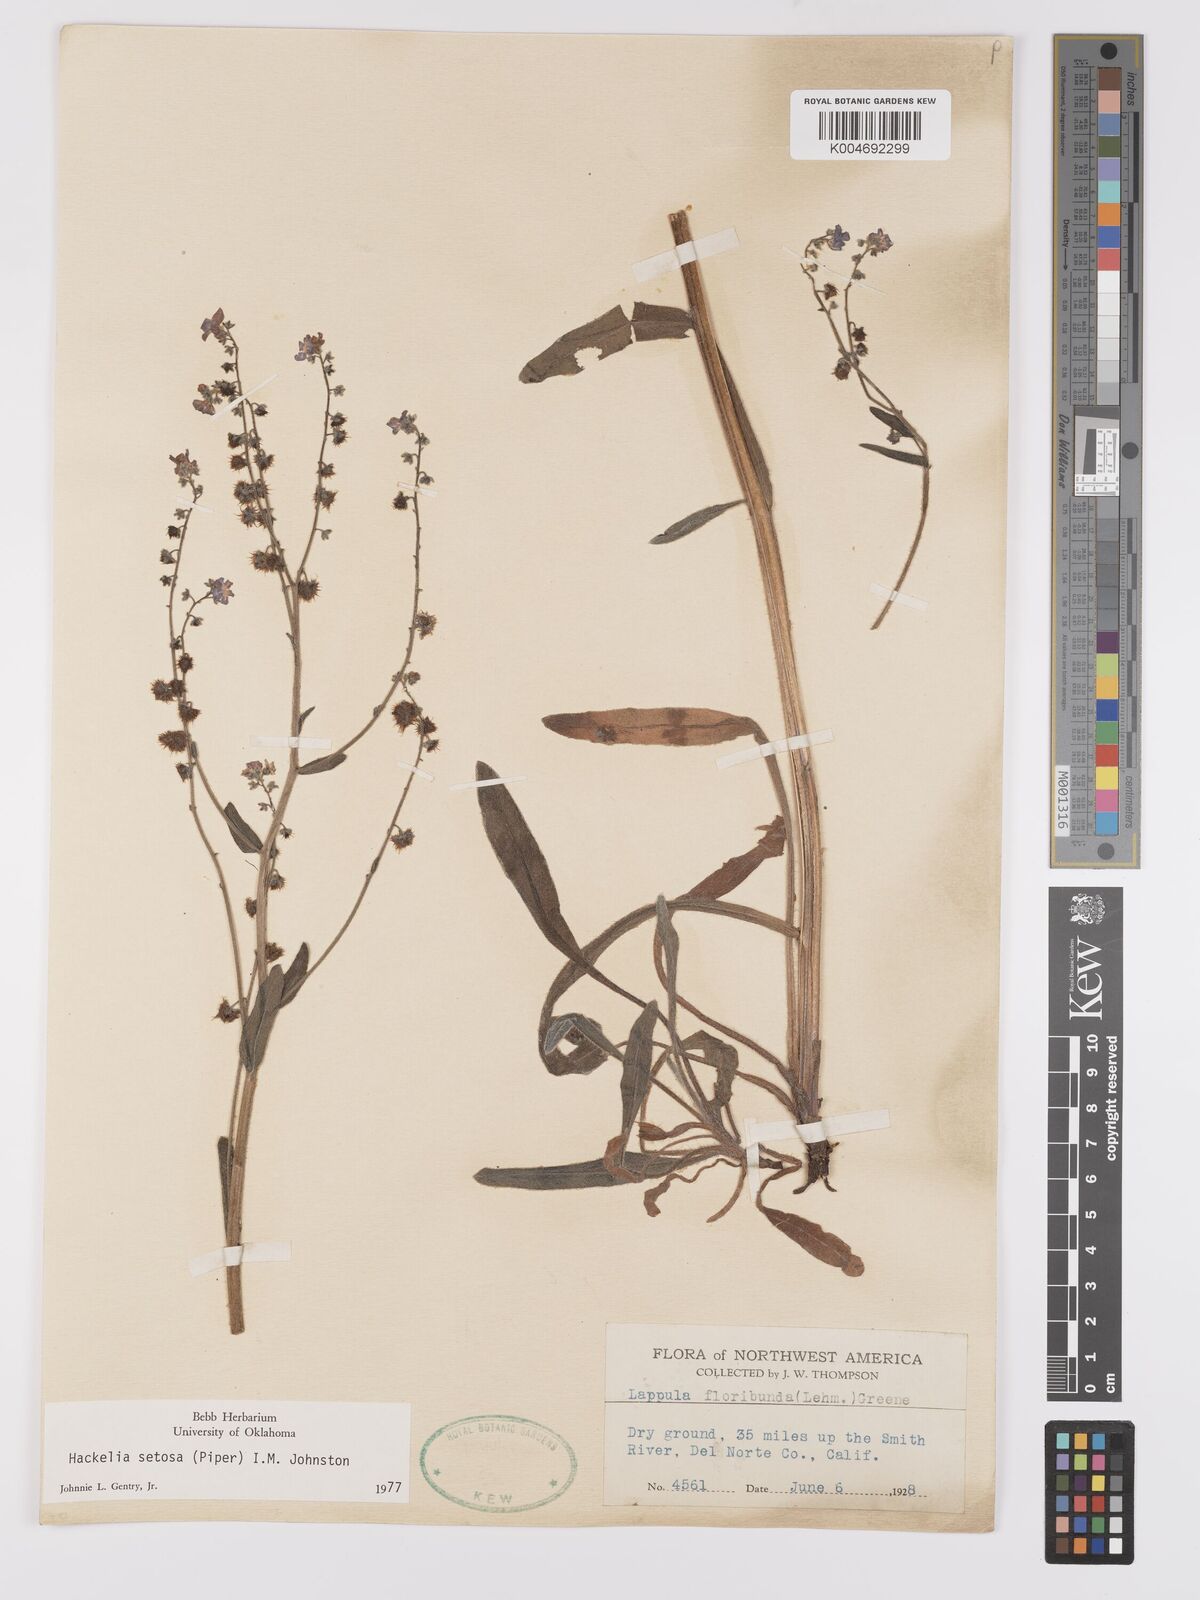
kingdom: Plantae
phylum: Tracheophyta
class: Magnoliopsida
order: Boraginales
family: Boraginaceae
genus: Hackelia
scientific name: Hackelia setosa
